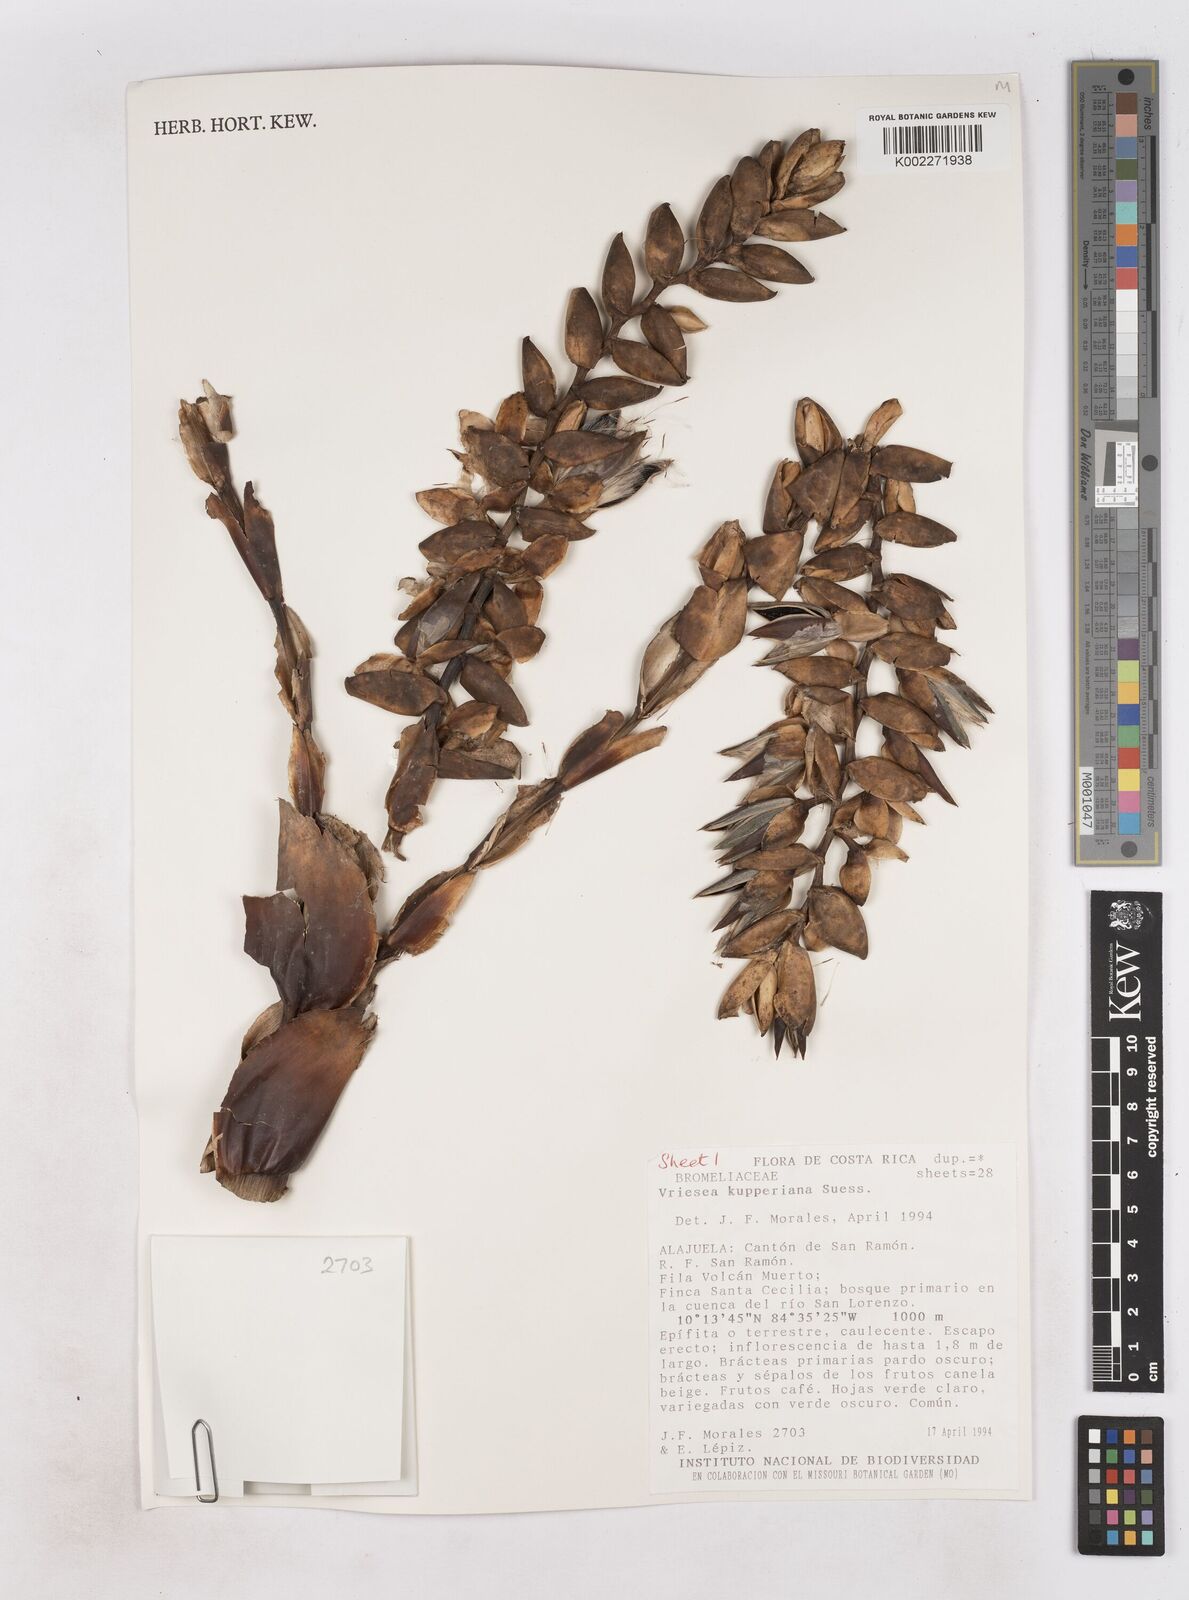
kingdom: Plantae
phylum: Tracheophyta
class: Liliopsida
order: Poales
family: Bromeliaceae
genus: Werauhia
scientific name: Werauhia kupperiana
